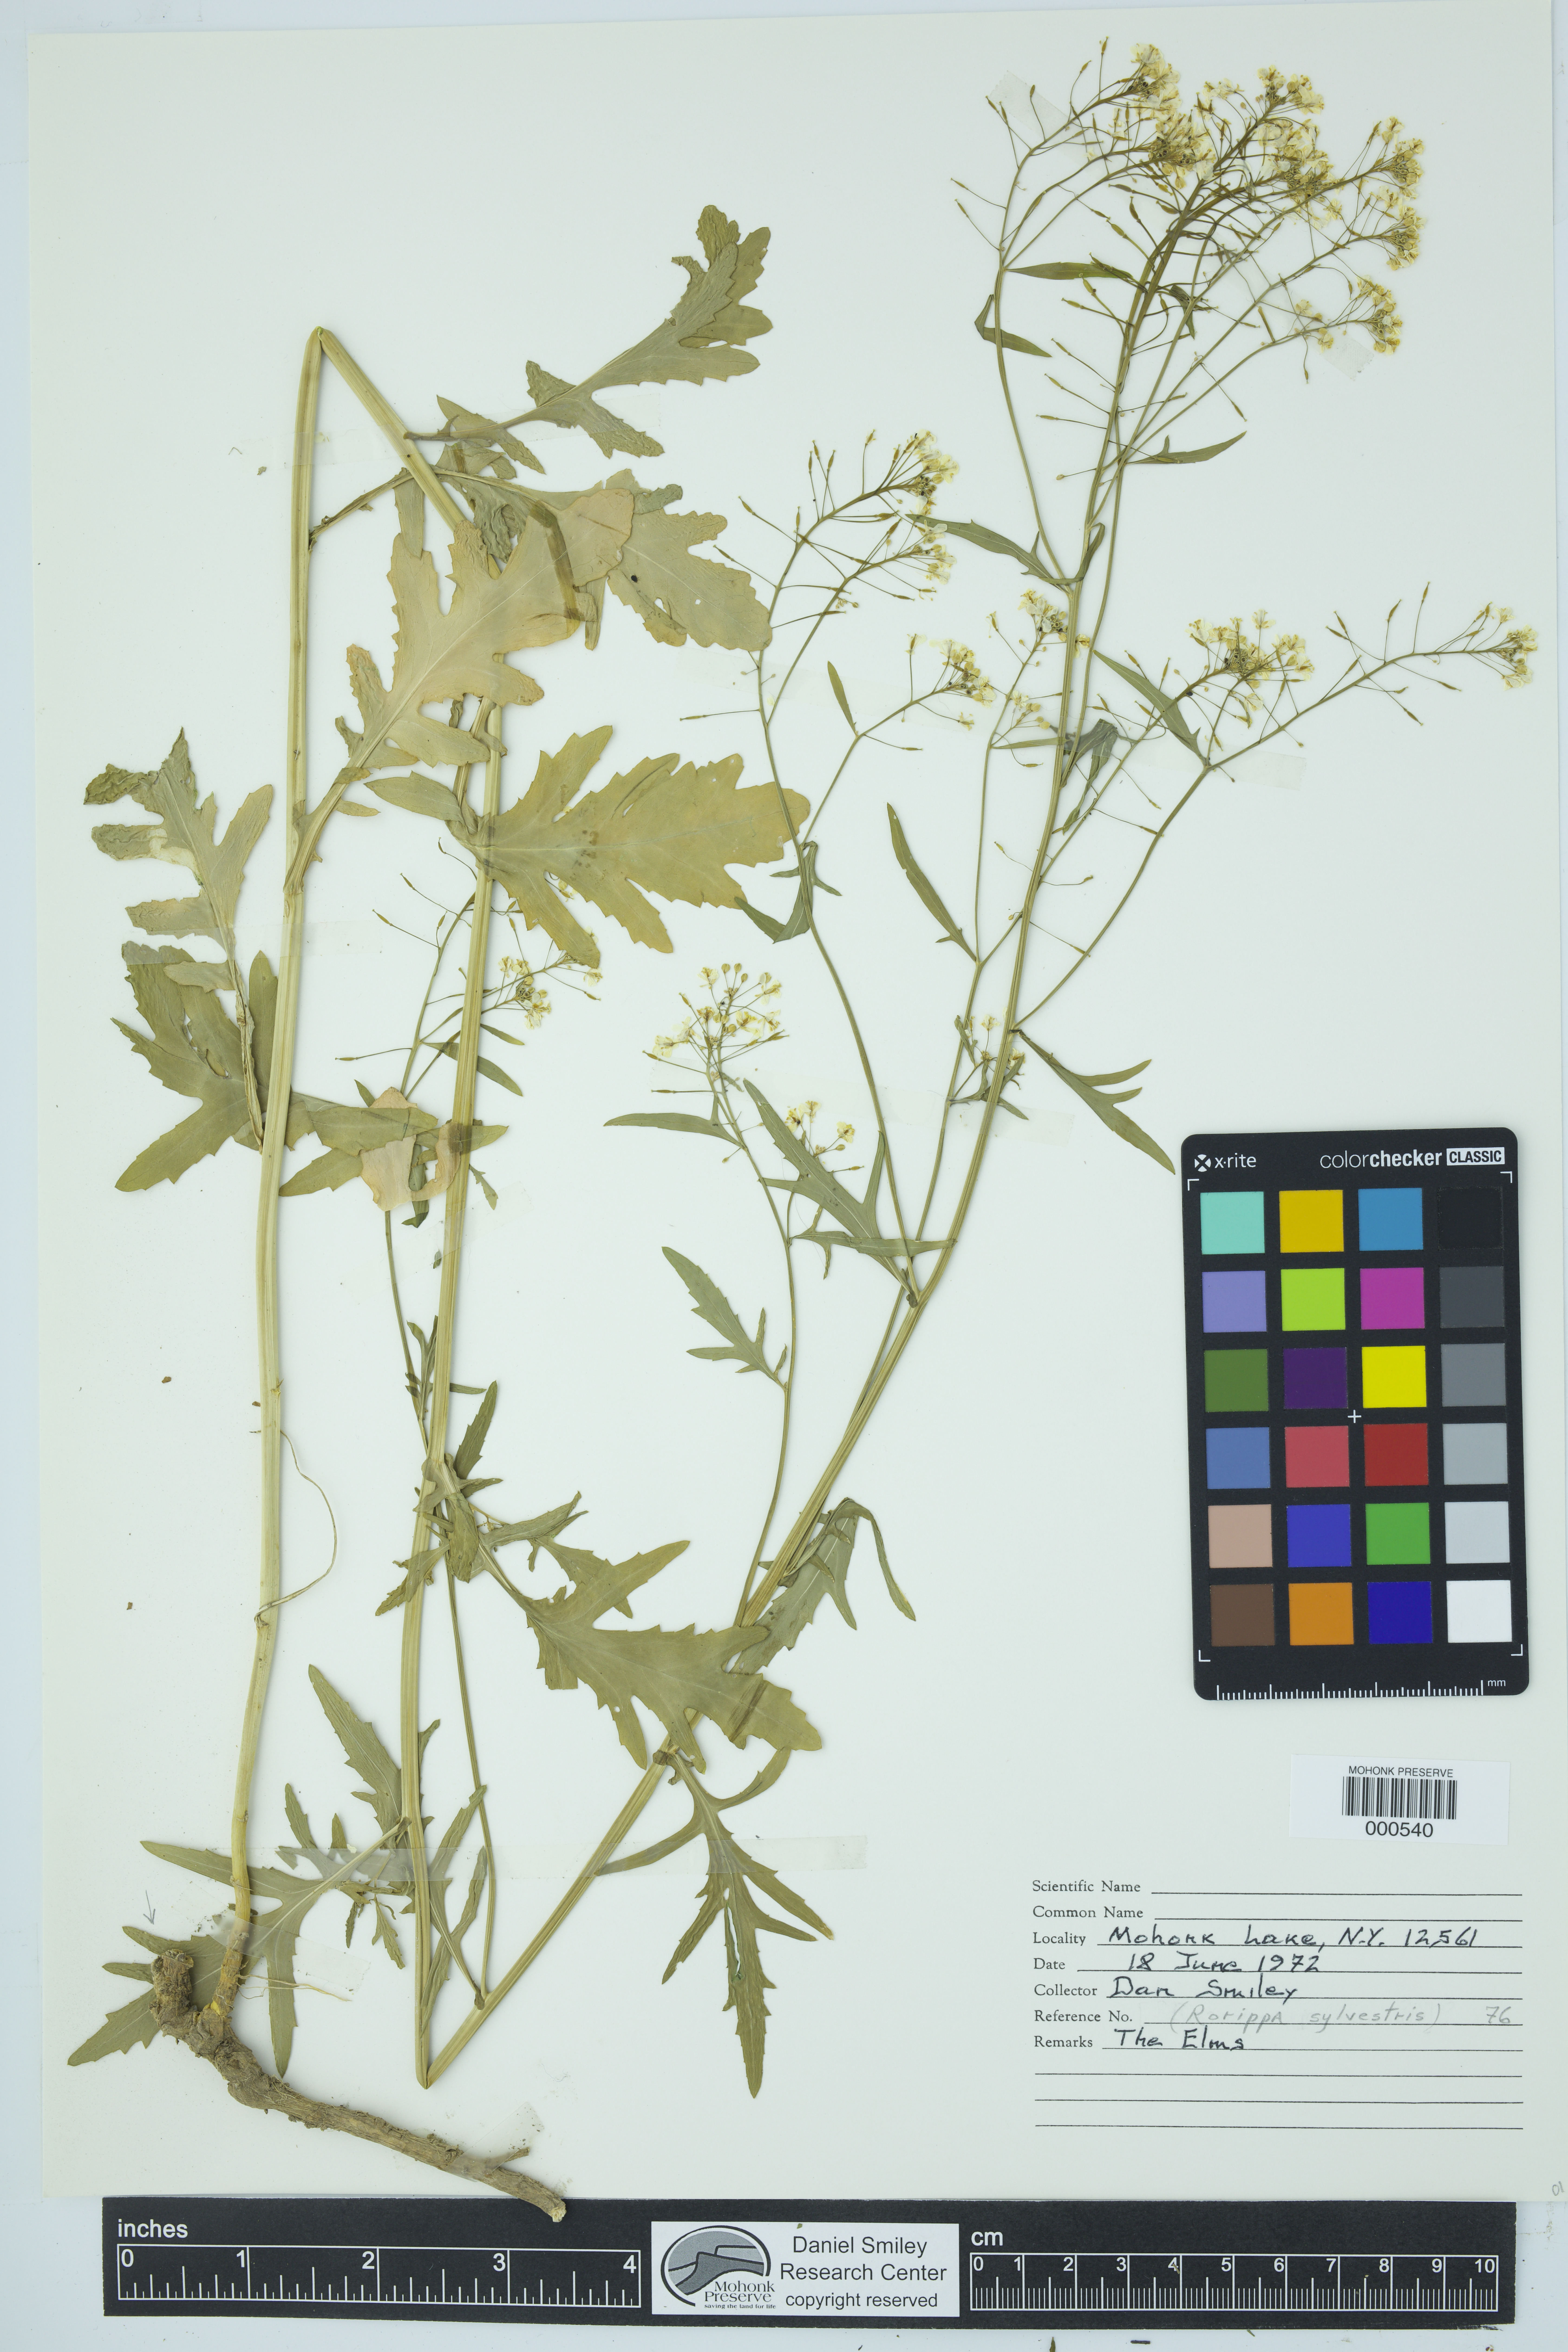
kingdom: Plantae
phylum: Tracheophyta
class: Magnoliopsida
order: Brassicales
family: Brassicaceae
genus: Rorippa
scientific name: Rorippa sylvestris
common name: Creeping yellowcress
